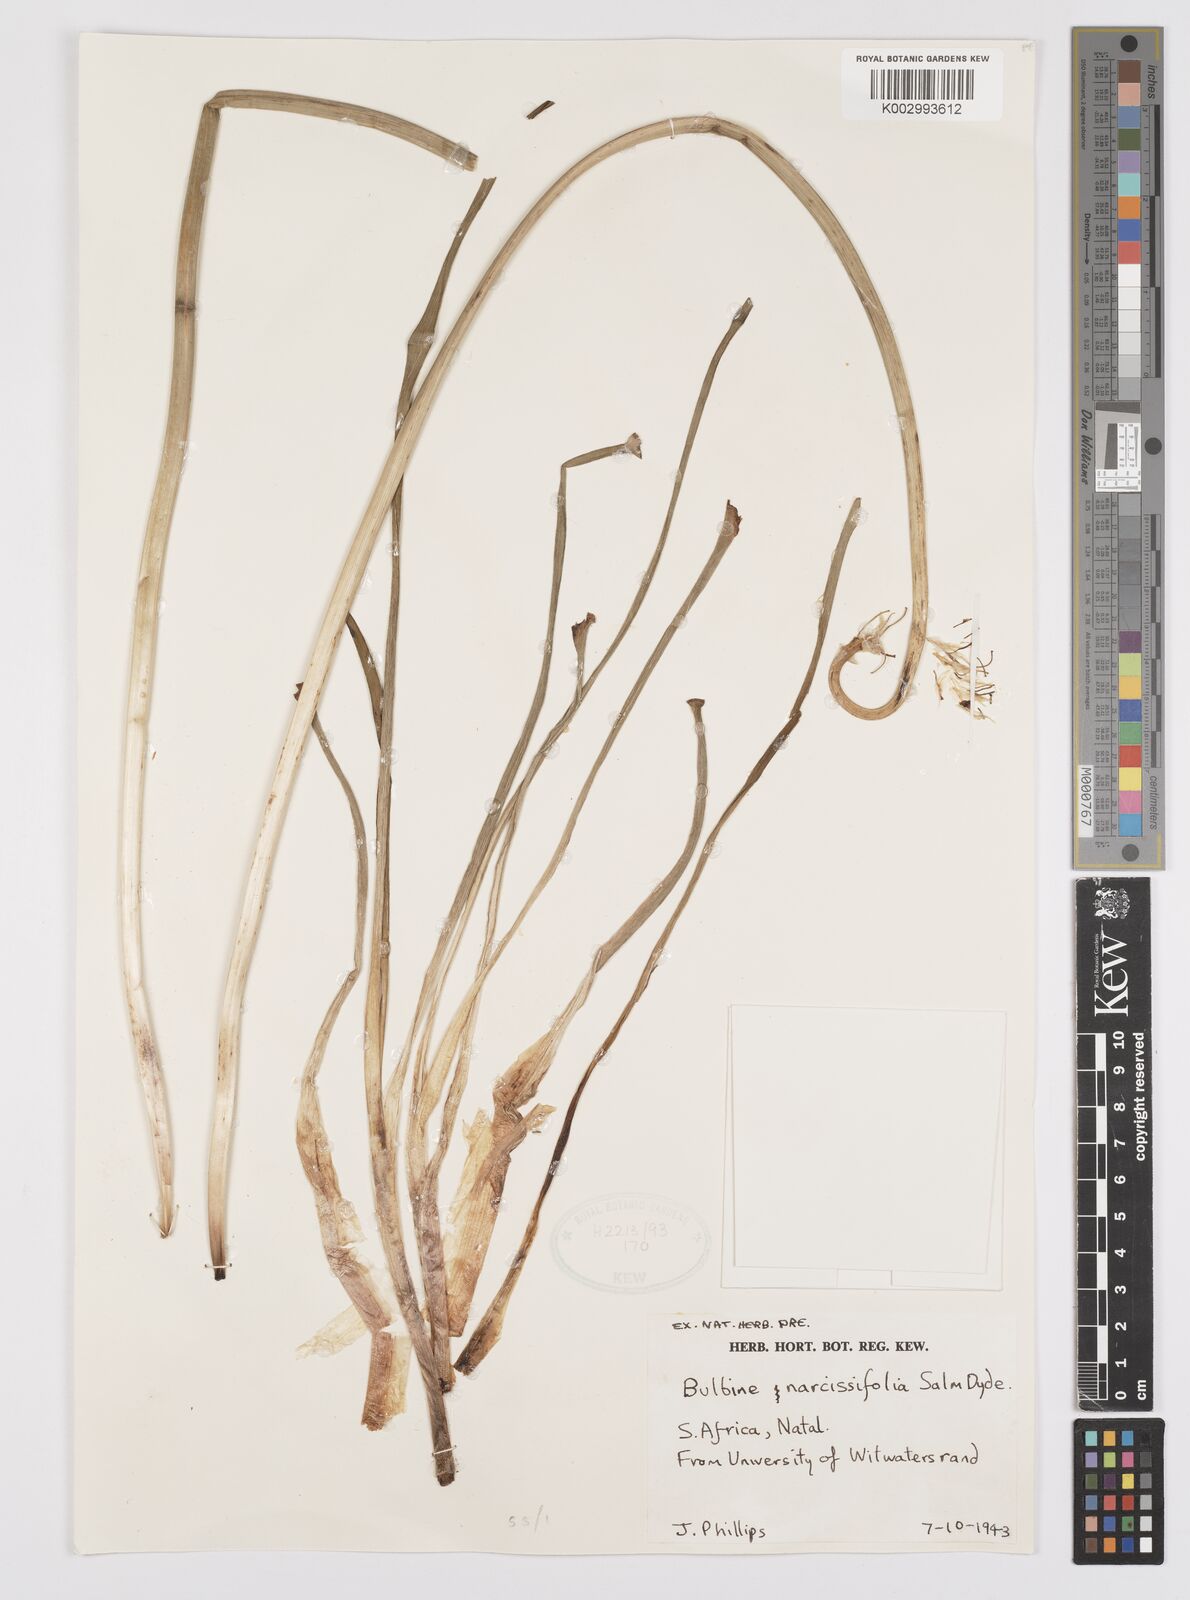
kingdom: Plantae
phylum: Tracheophyta
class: Liliopsida
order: Asparagales
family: Asphodelaceae
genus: Bulbine
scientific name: Bulbine narcissifolia
